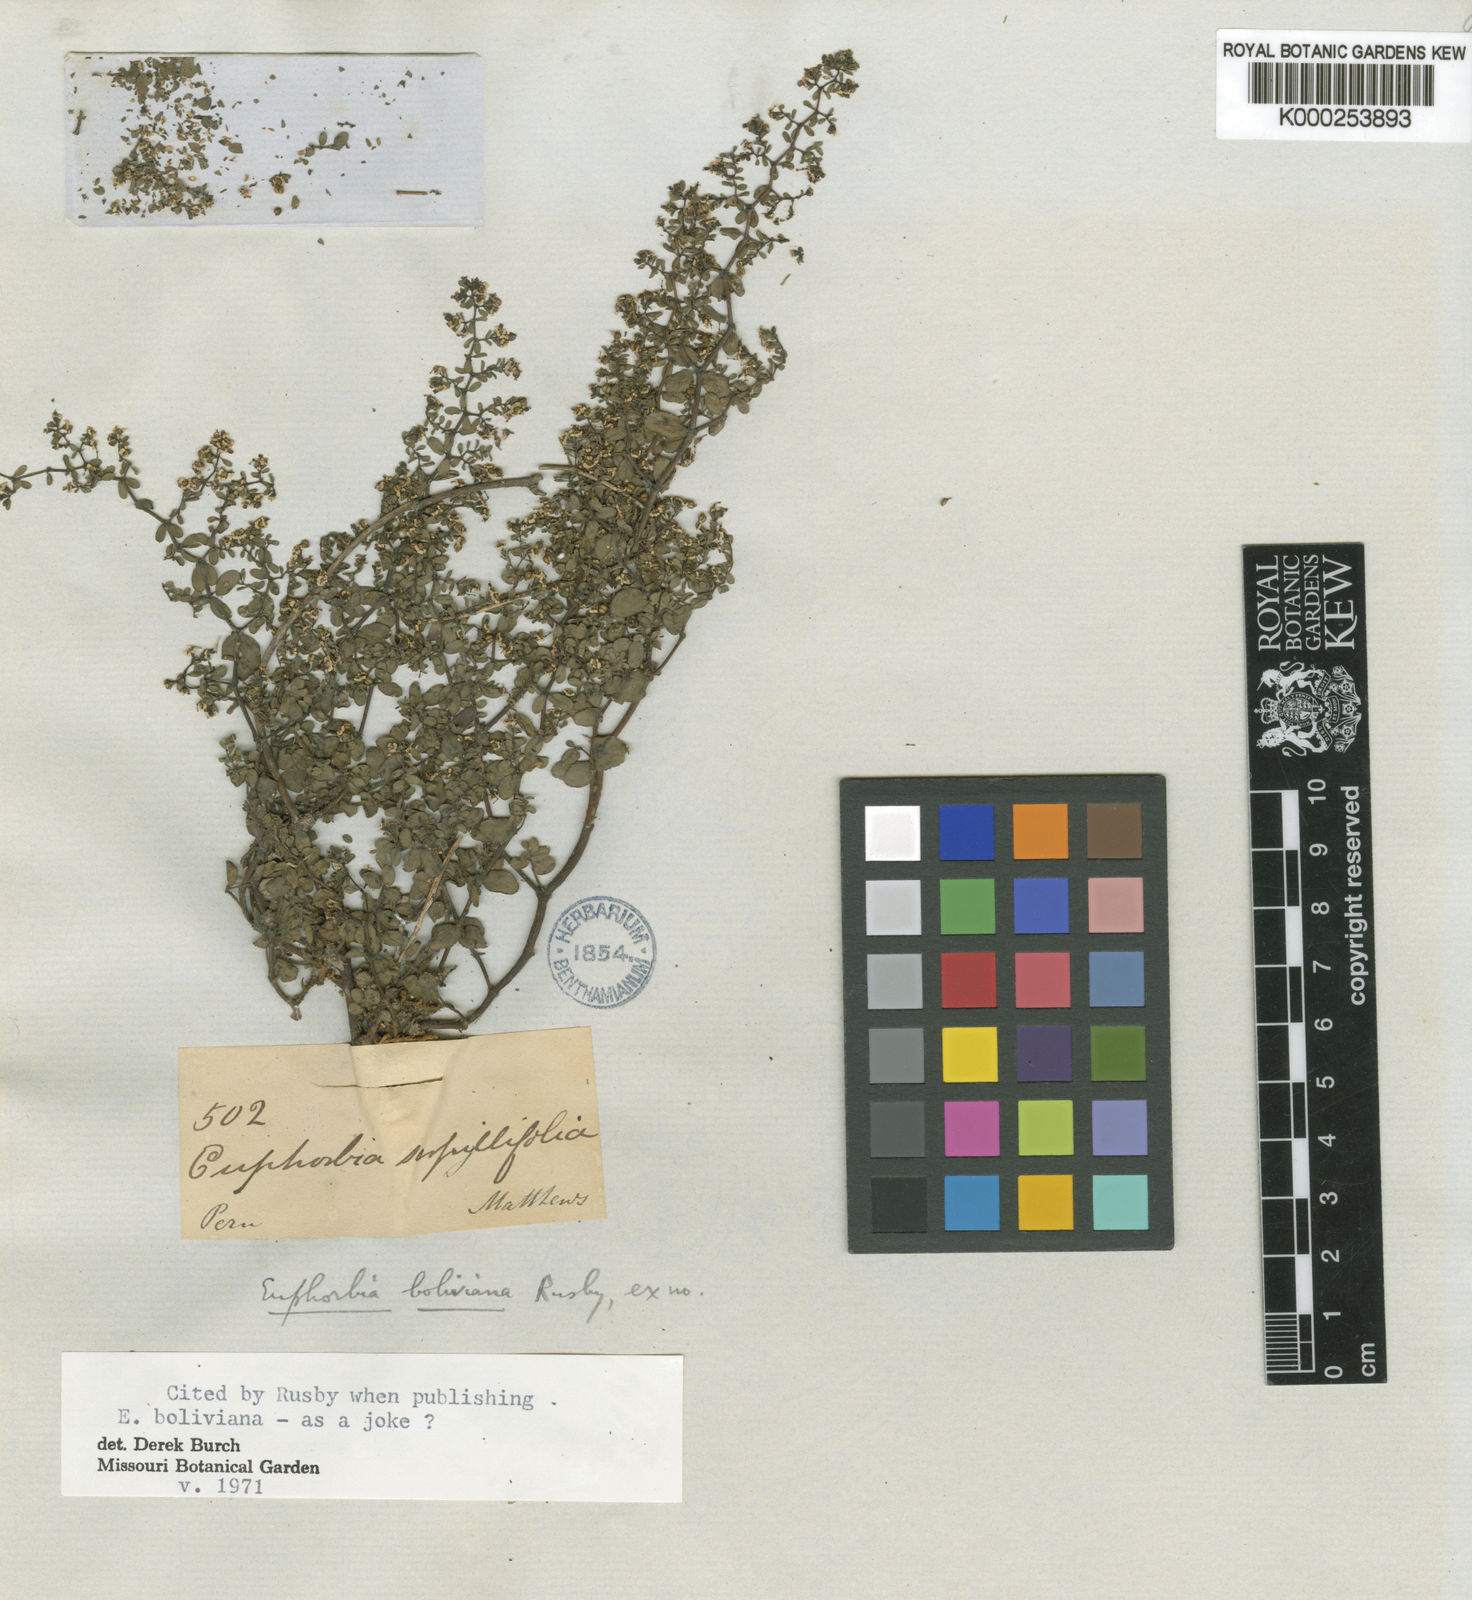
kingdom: Plantae
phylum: Tracheophyta
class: Magnoliopsida
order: Malpighiales
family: Euphorbiaceae
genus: Euphorbia
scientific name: Euphorbia hypericifolia
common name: Graceful sandmat
